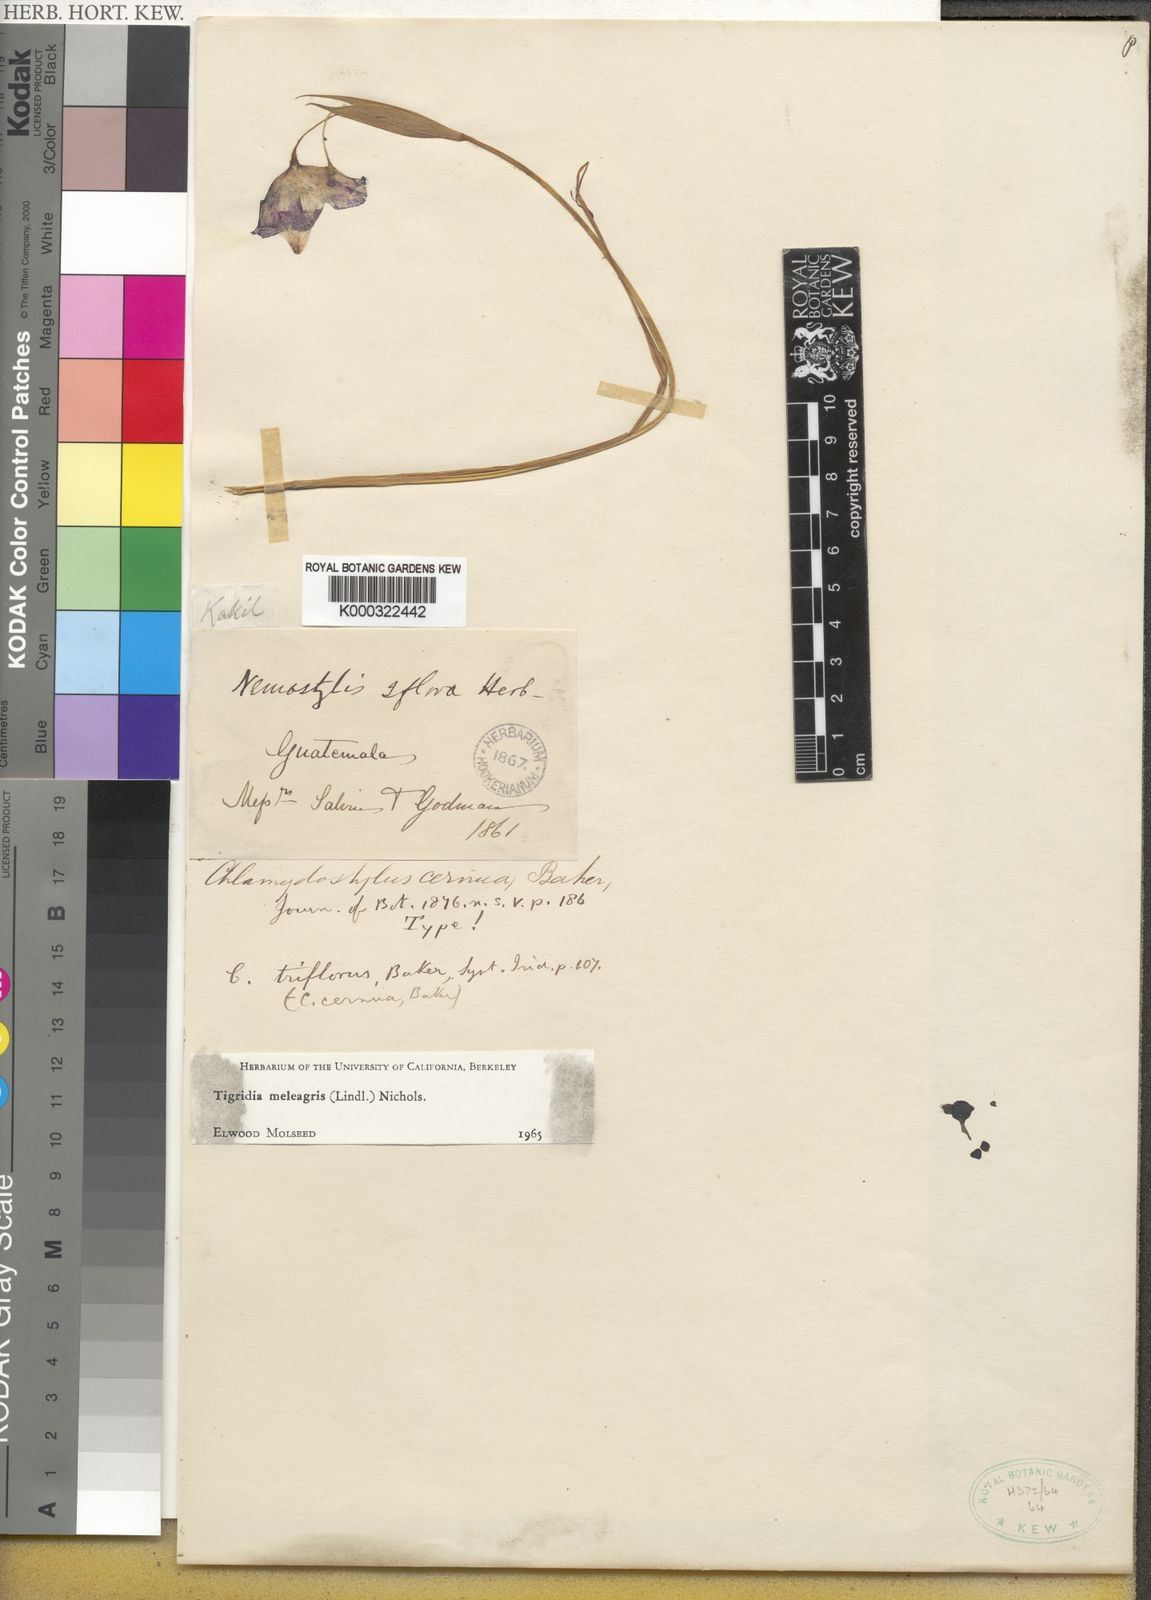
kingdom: Plantae
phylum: Tracheophyta
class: Liliopsida
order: Asparagales
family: Iridaceae
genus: Tigridia
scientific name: Tigridia meleagris
